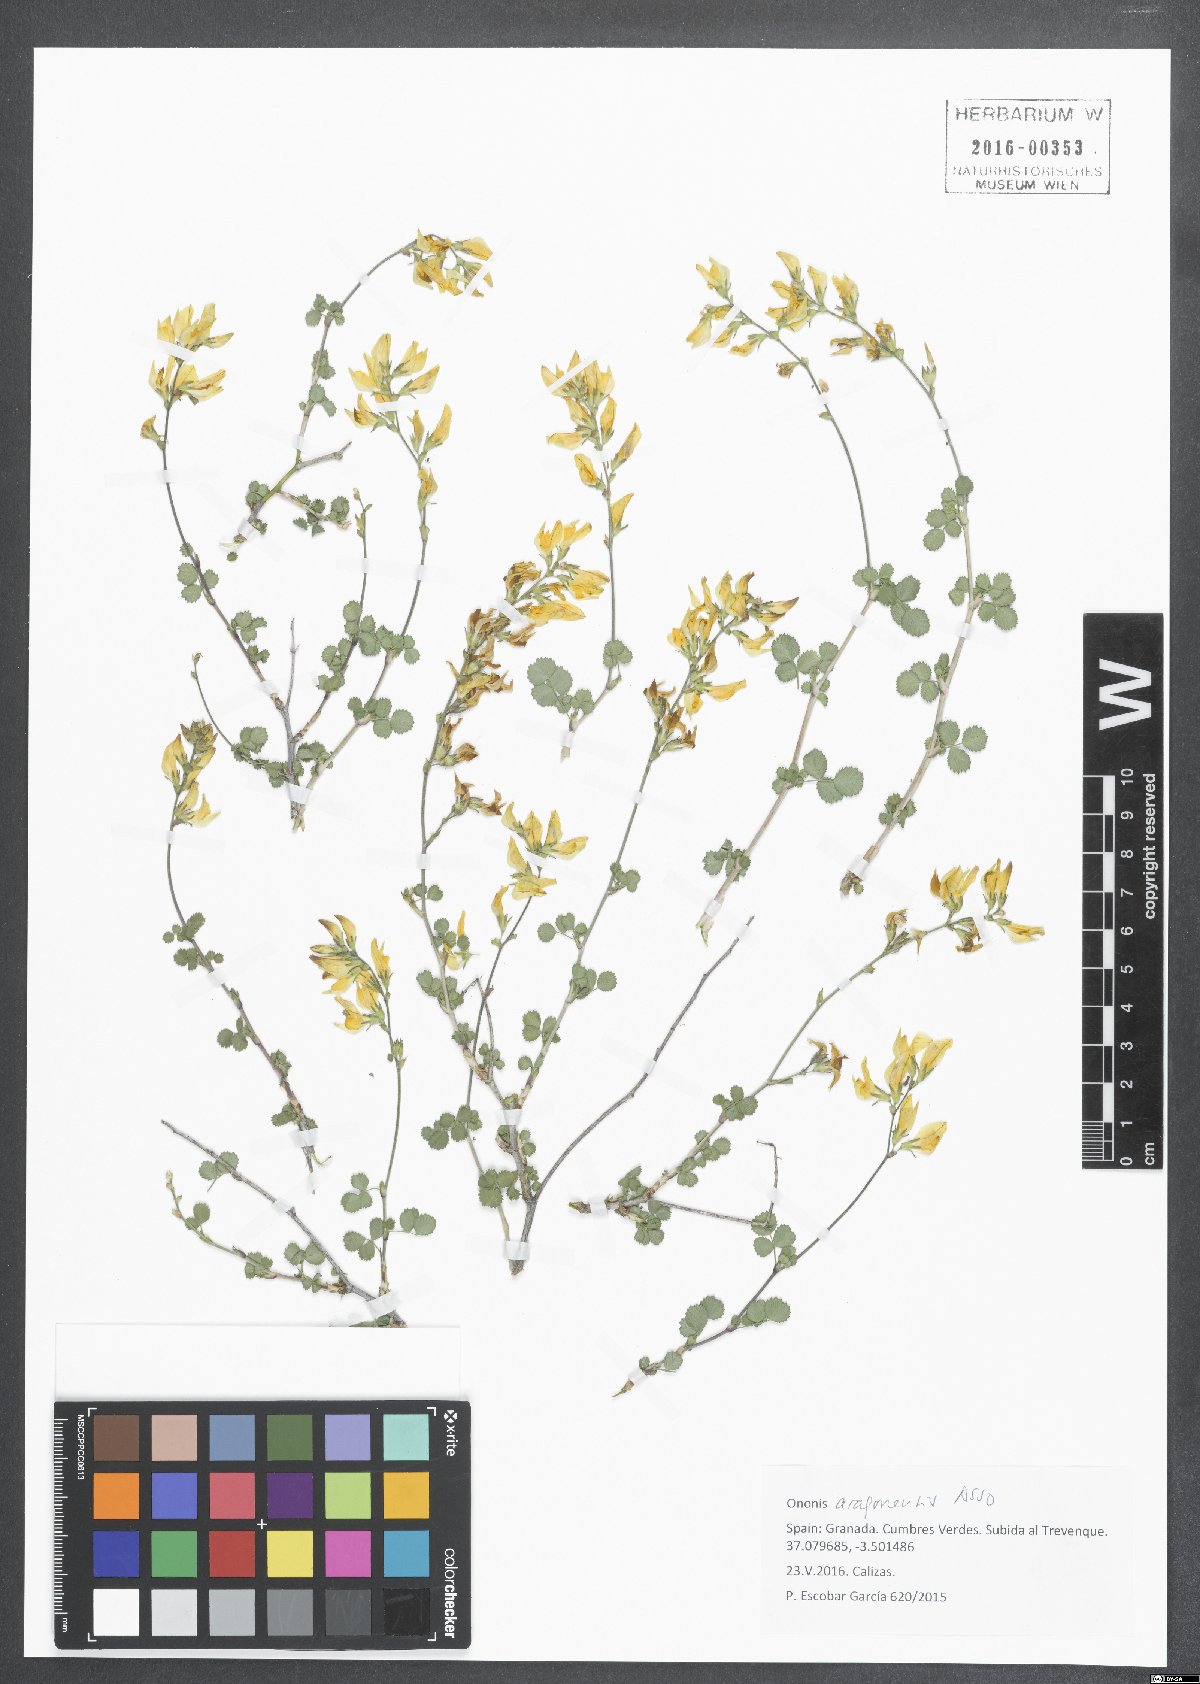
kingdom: Plantae
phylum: Tracheophyta
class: Magnoliopsida
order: Fabales
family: Fabaceae
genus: Ononis
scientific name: Ononis aragonensis
